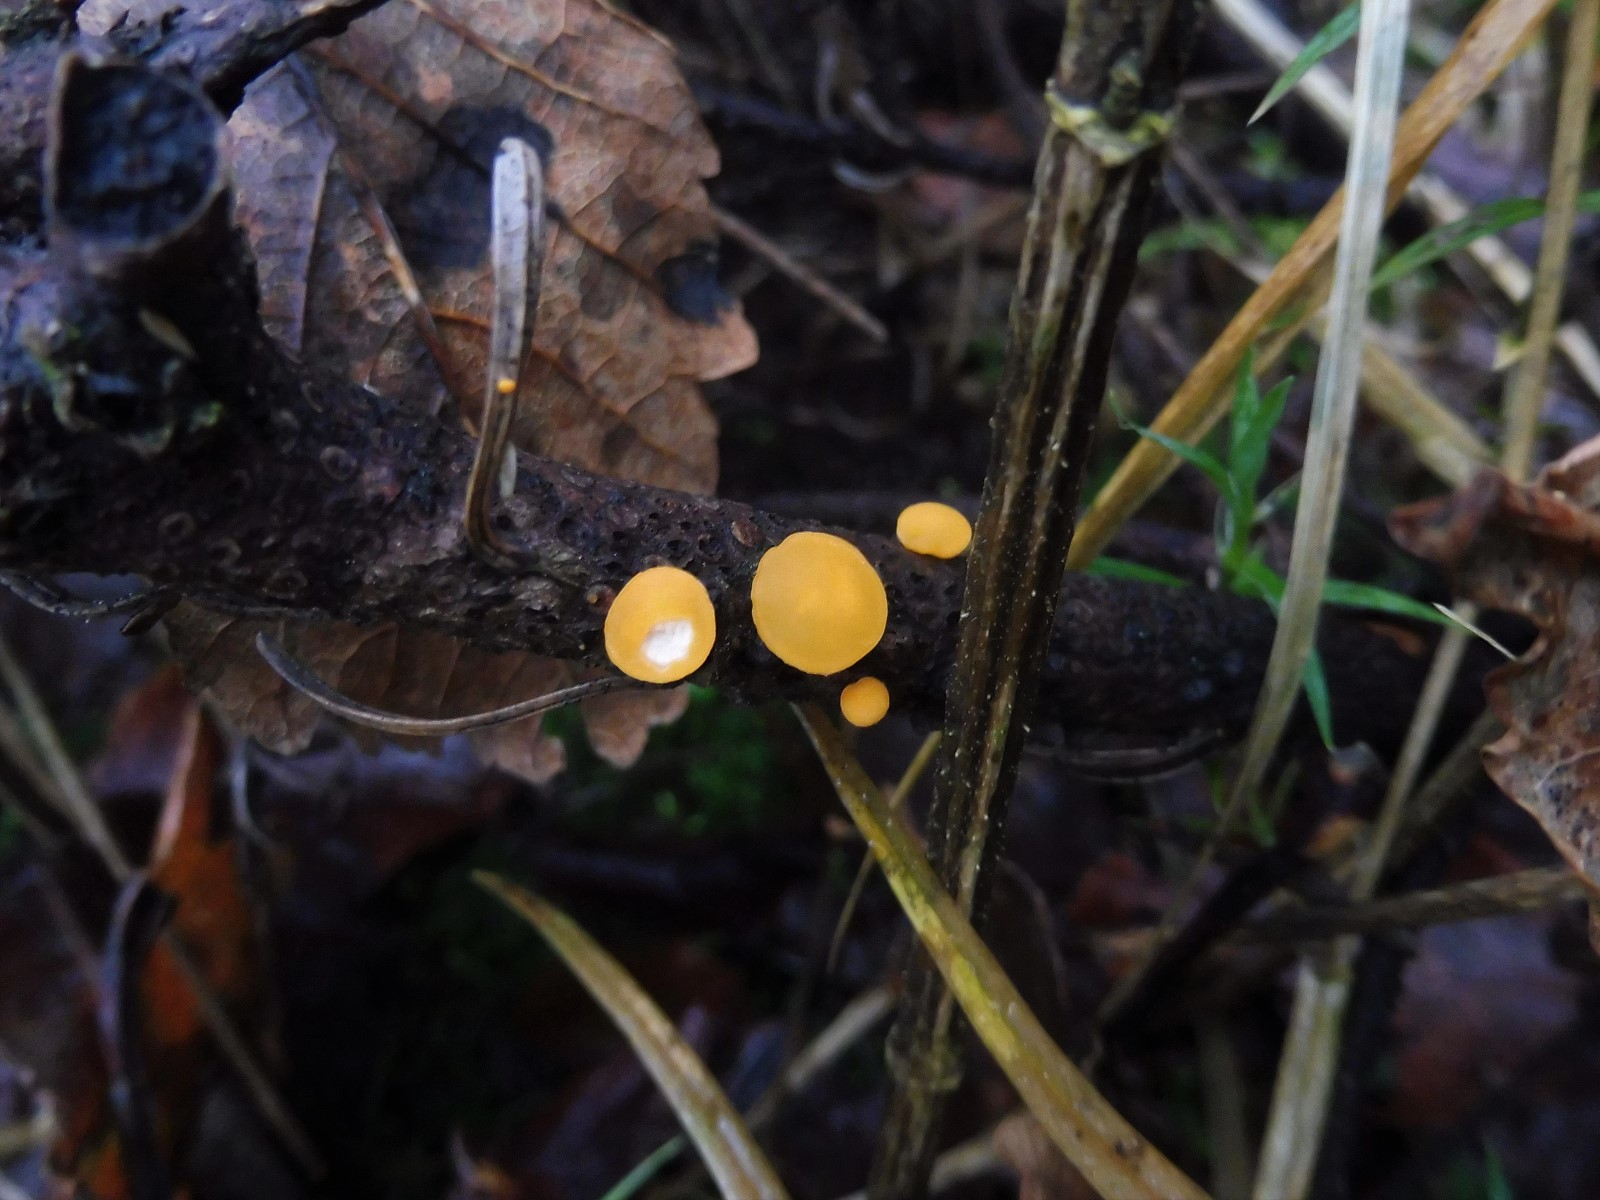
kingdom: Fungi
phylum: Ascomycota
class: Pezizomycetes
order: Pezizales
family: Sarcoscyphaceae
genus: Pithya
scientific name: Pithya vulgaris
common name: stor dukatbæger
